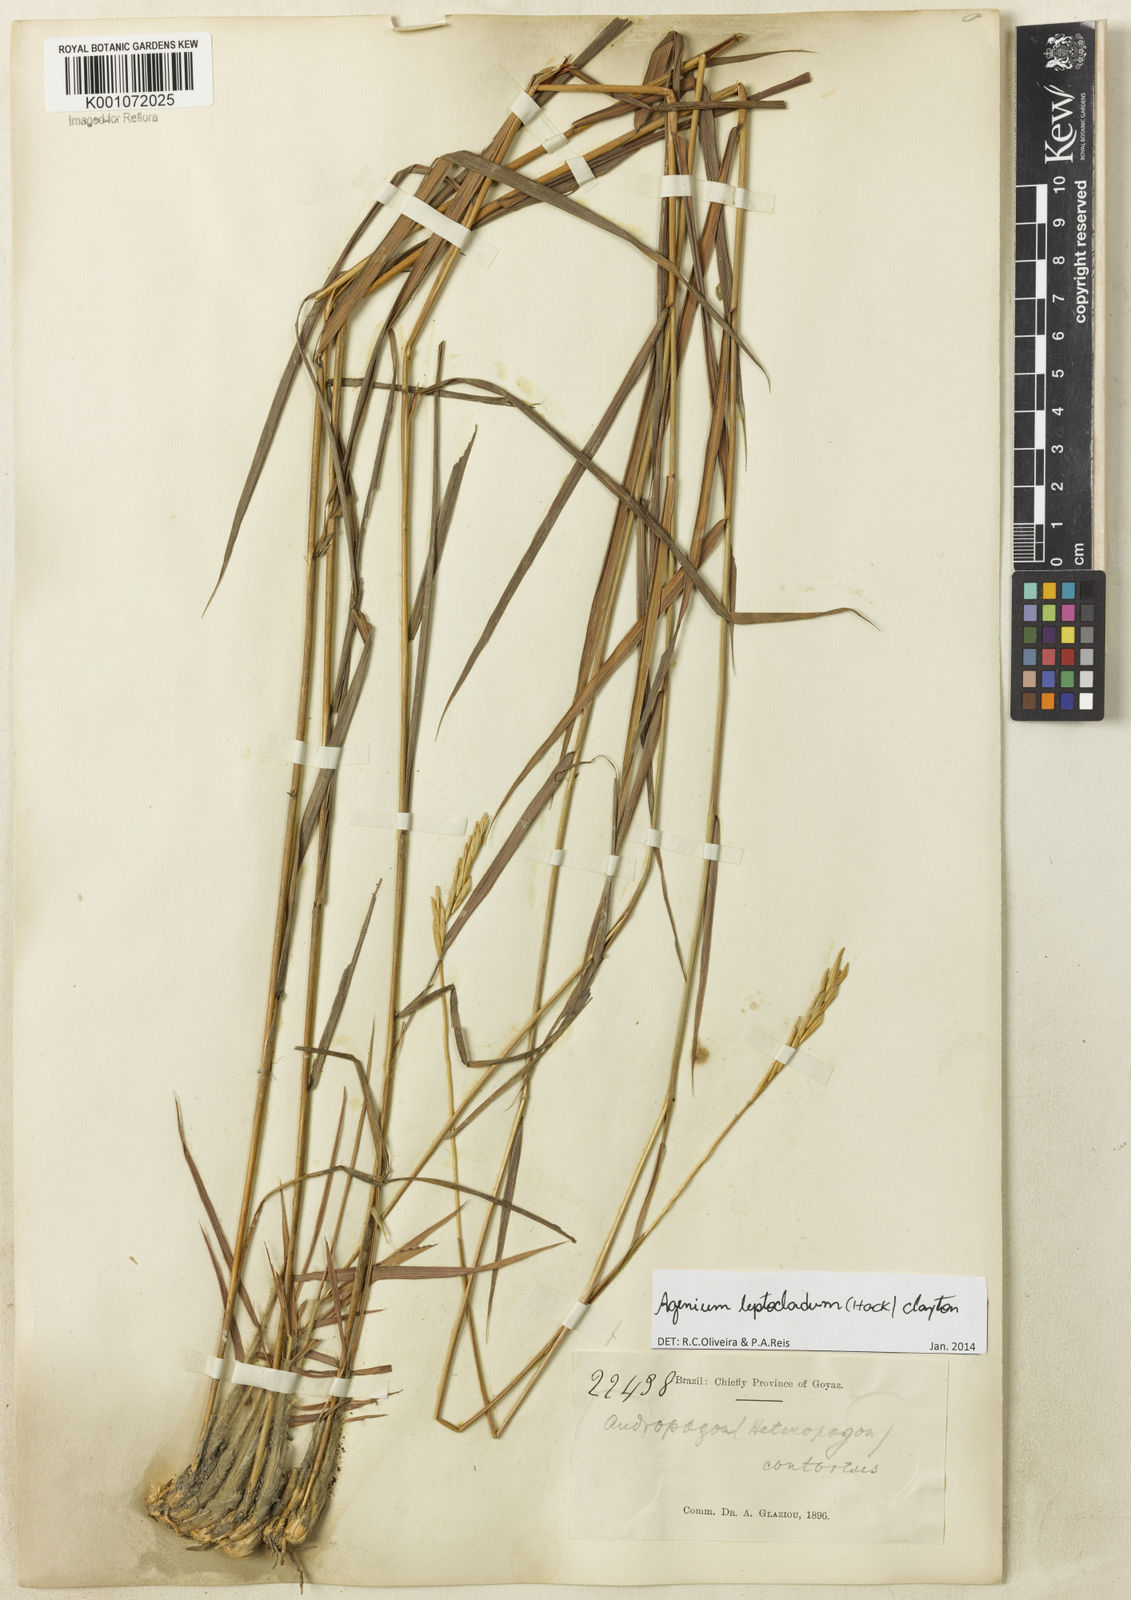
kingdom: Plantae
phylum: Tracheophyta
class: Liliopsida
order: Poales
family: Poaceae
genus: Agenium
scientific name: Agenium leptocladum
